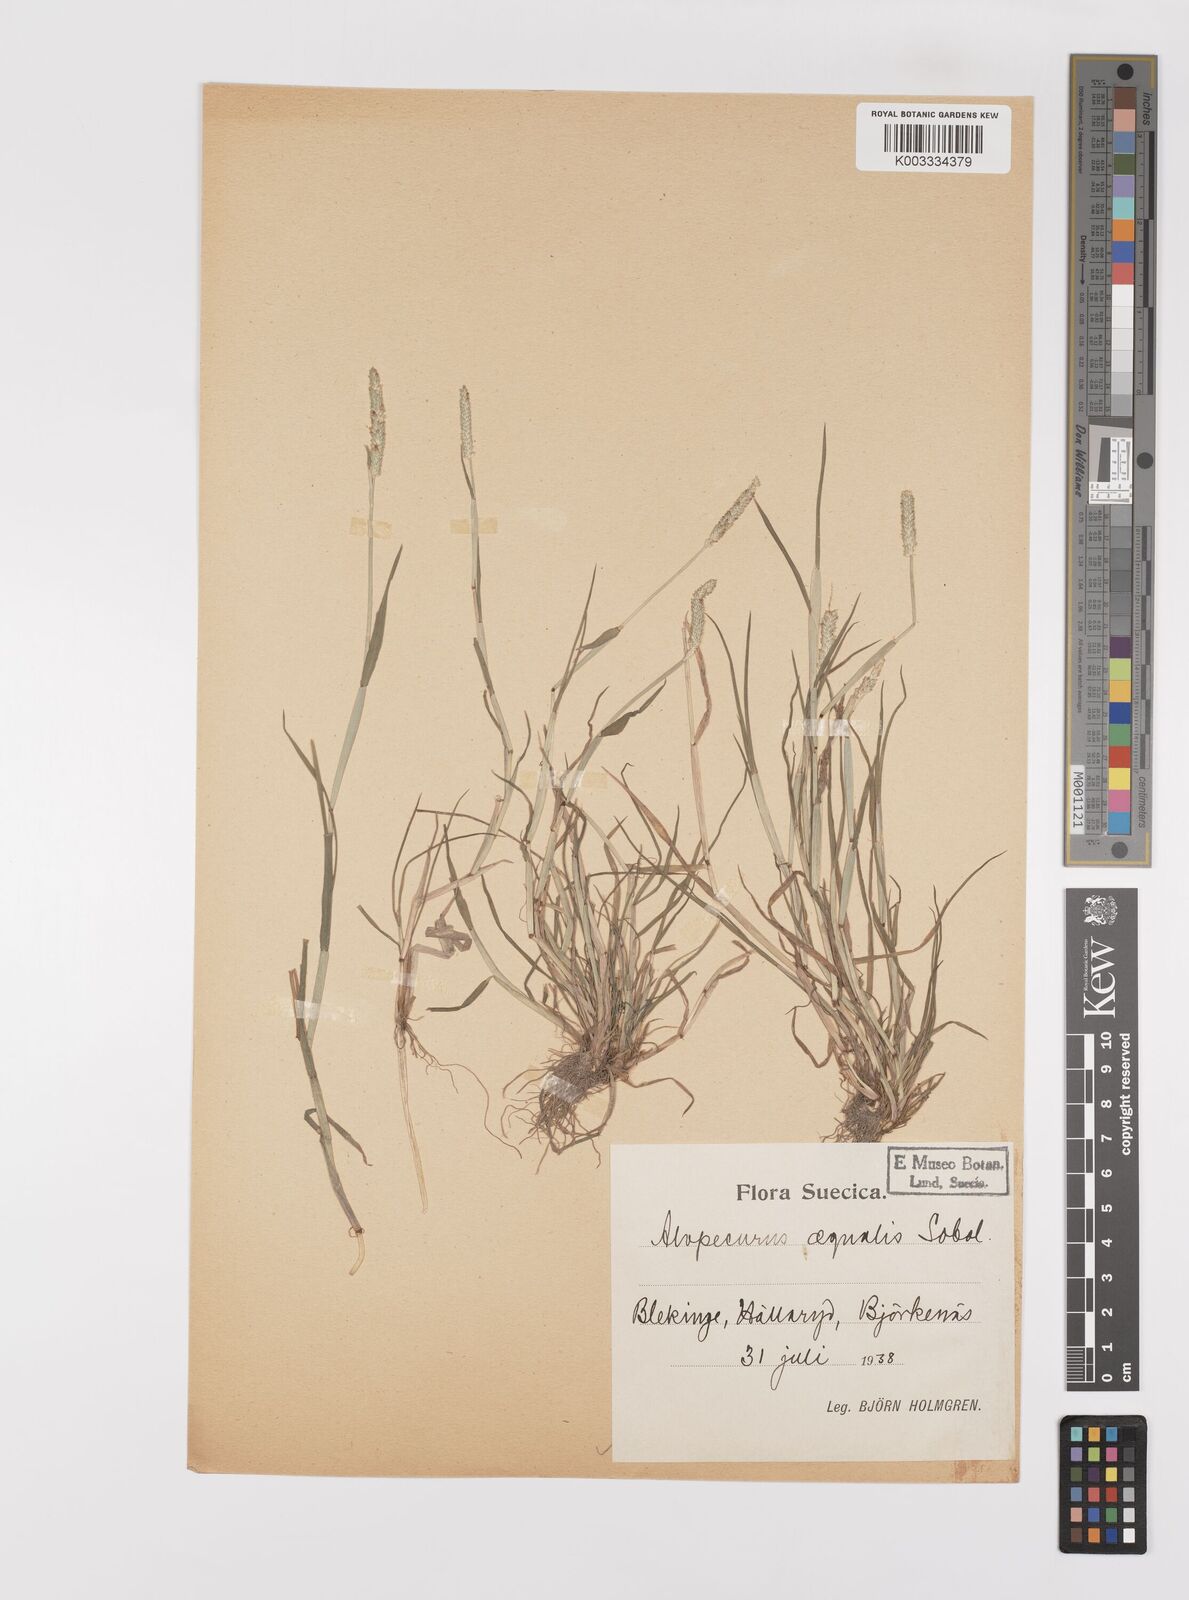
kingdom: Plantae
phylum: Tracheophyta
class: Liliopsida
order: Poales
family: Poaceae
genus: Alopecurus
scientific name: Alopecurus aequalis
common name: Orange foxtail
